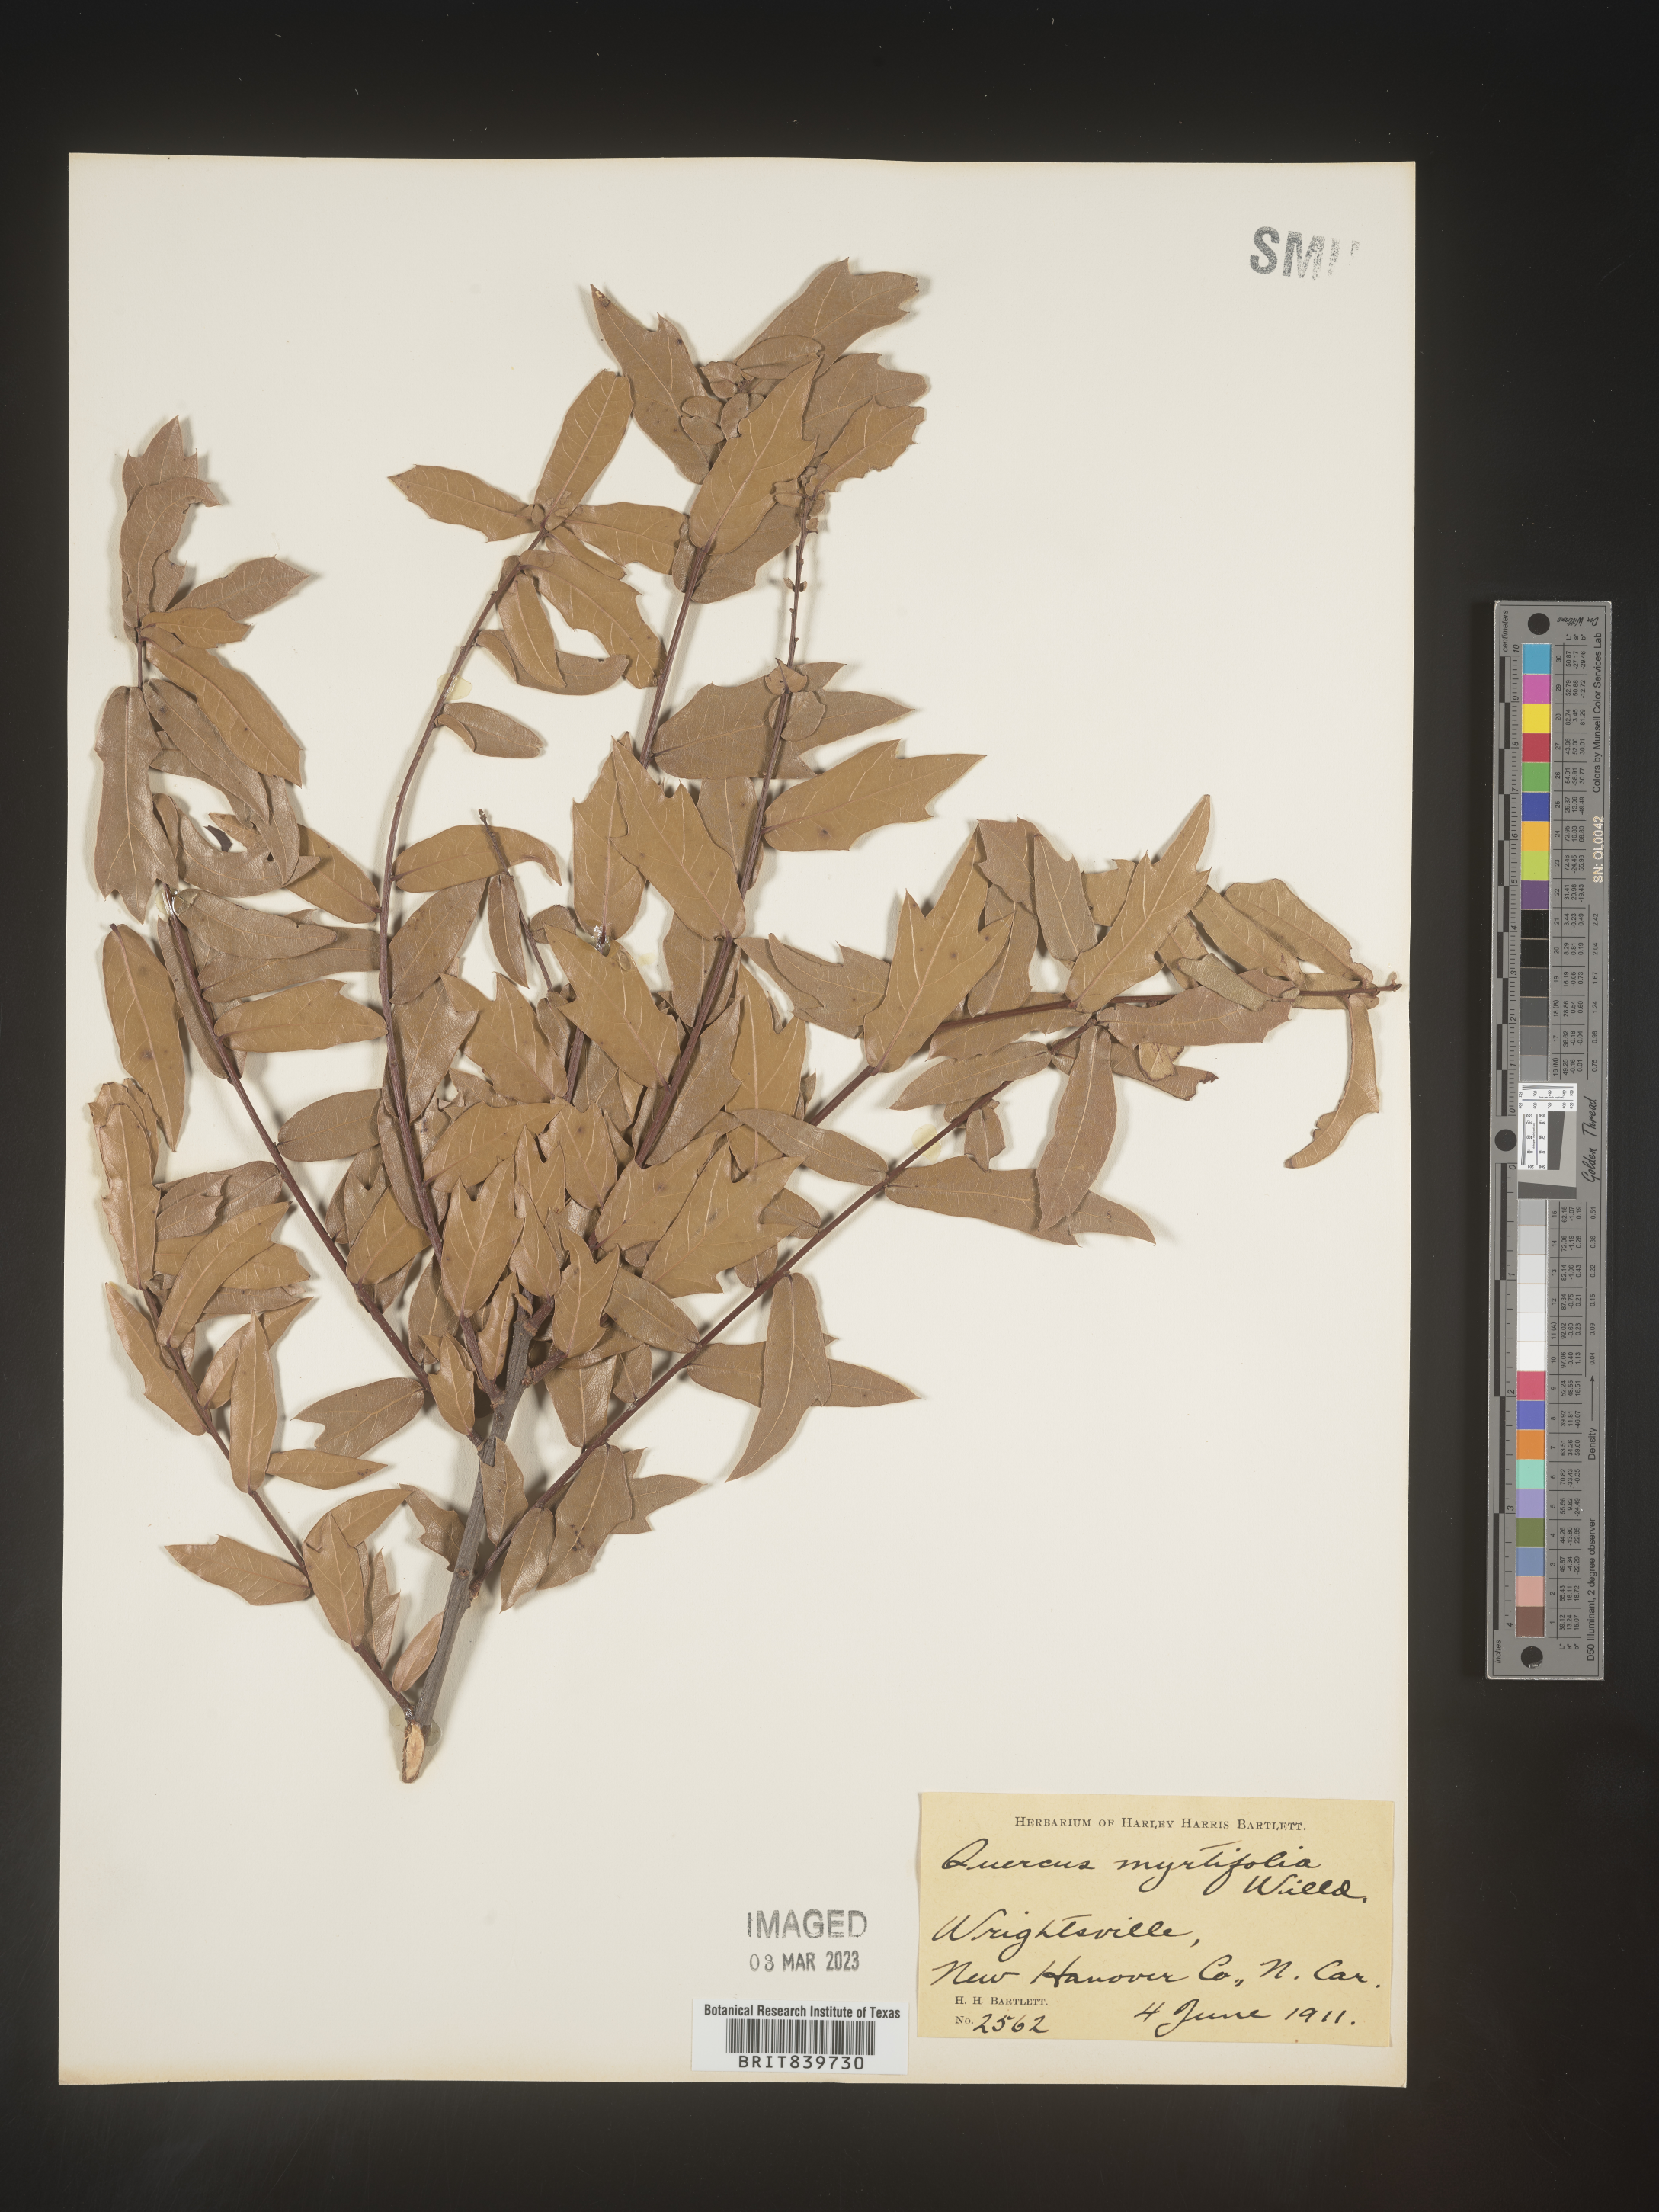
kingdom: Plantae
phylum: Tracheophyta
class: Magnoliopsida
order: Fagales
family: Fagaceae
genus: Quercus
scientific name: Quercus
